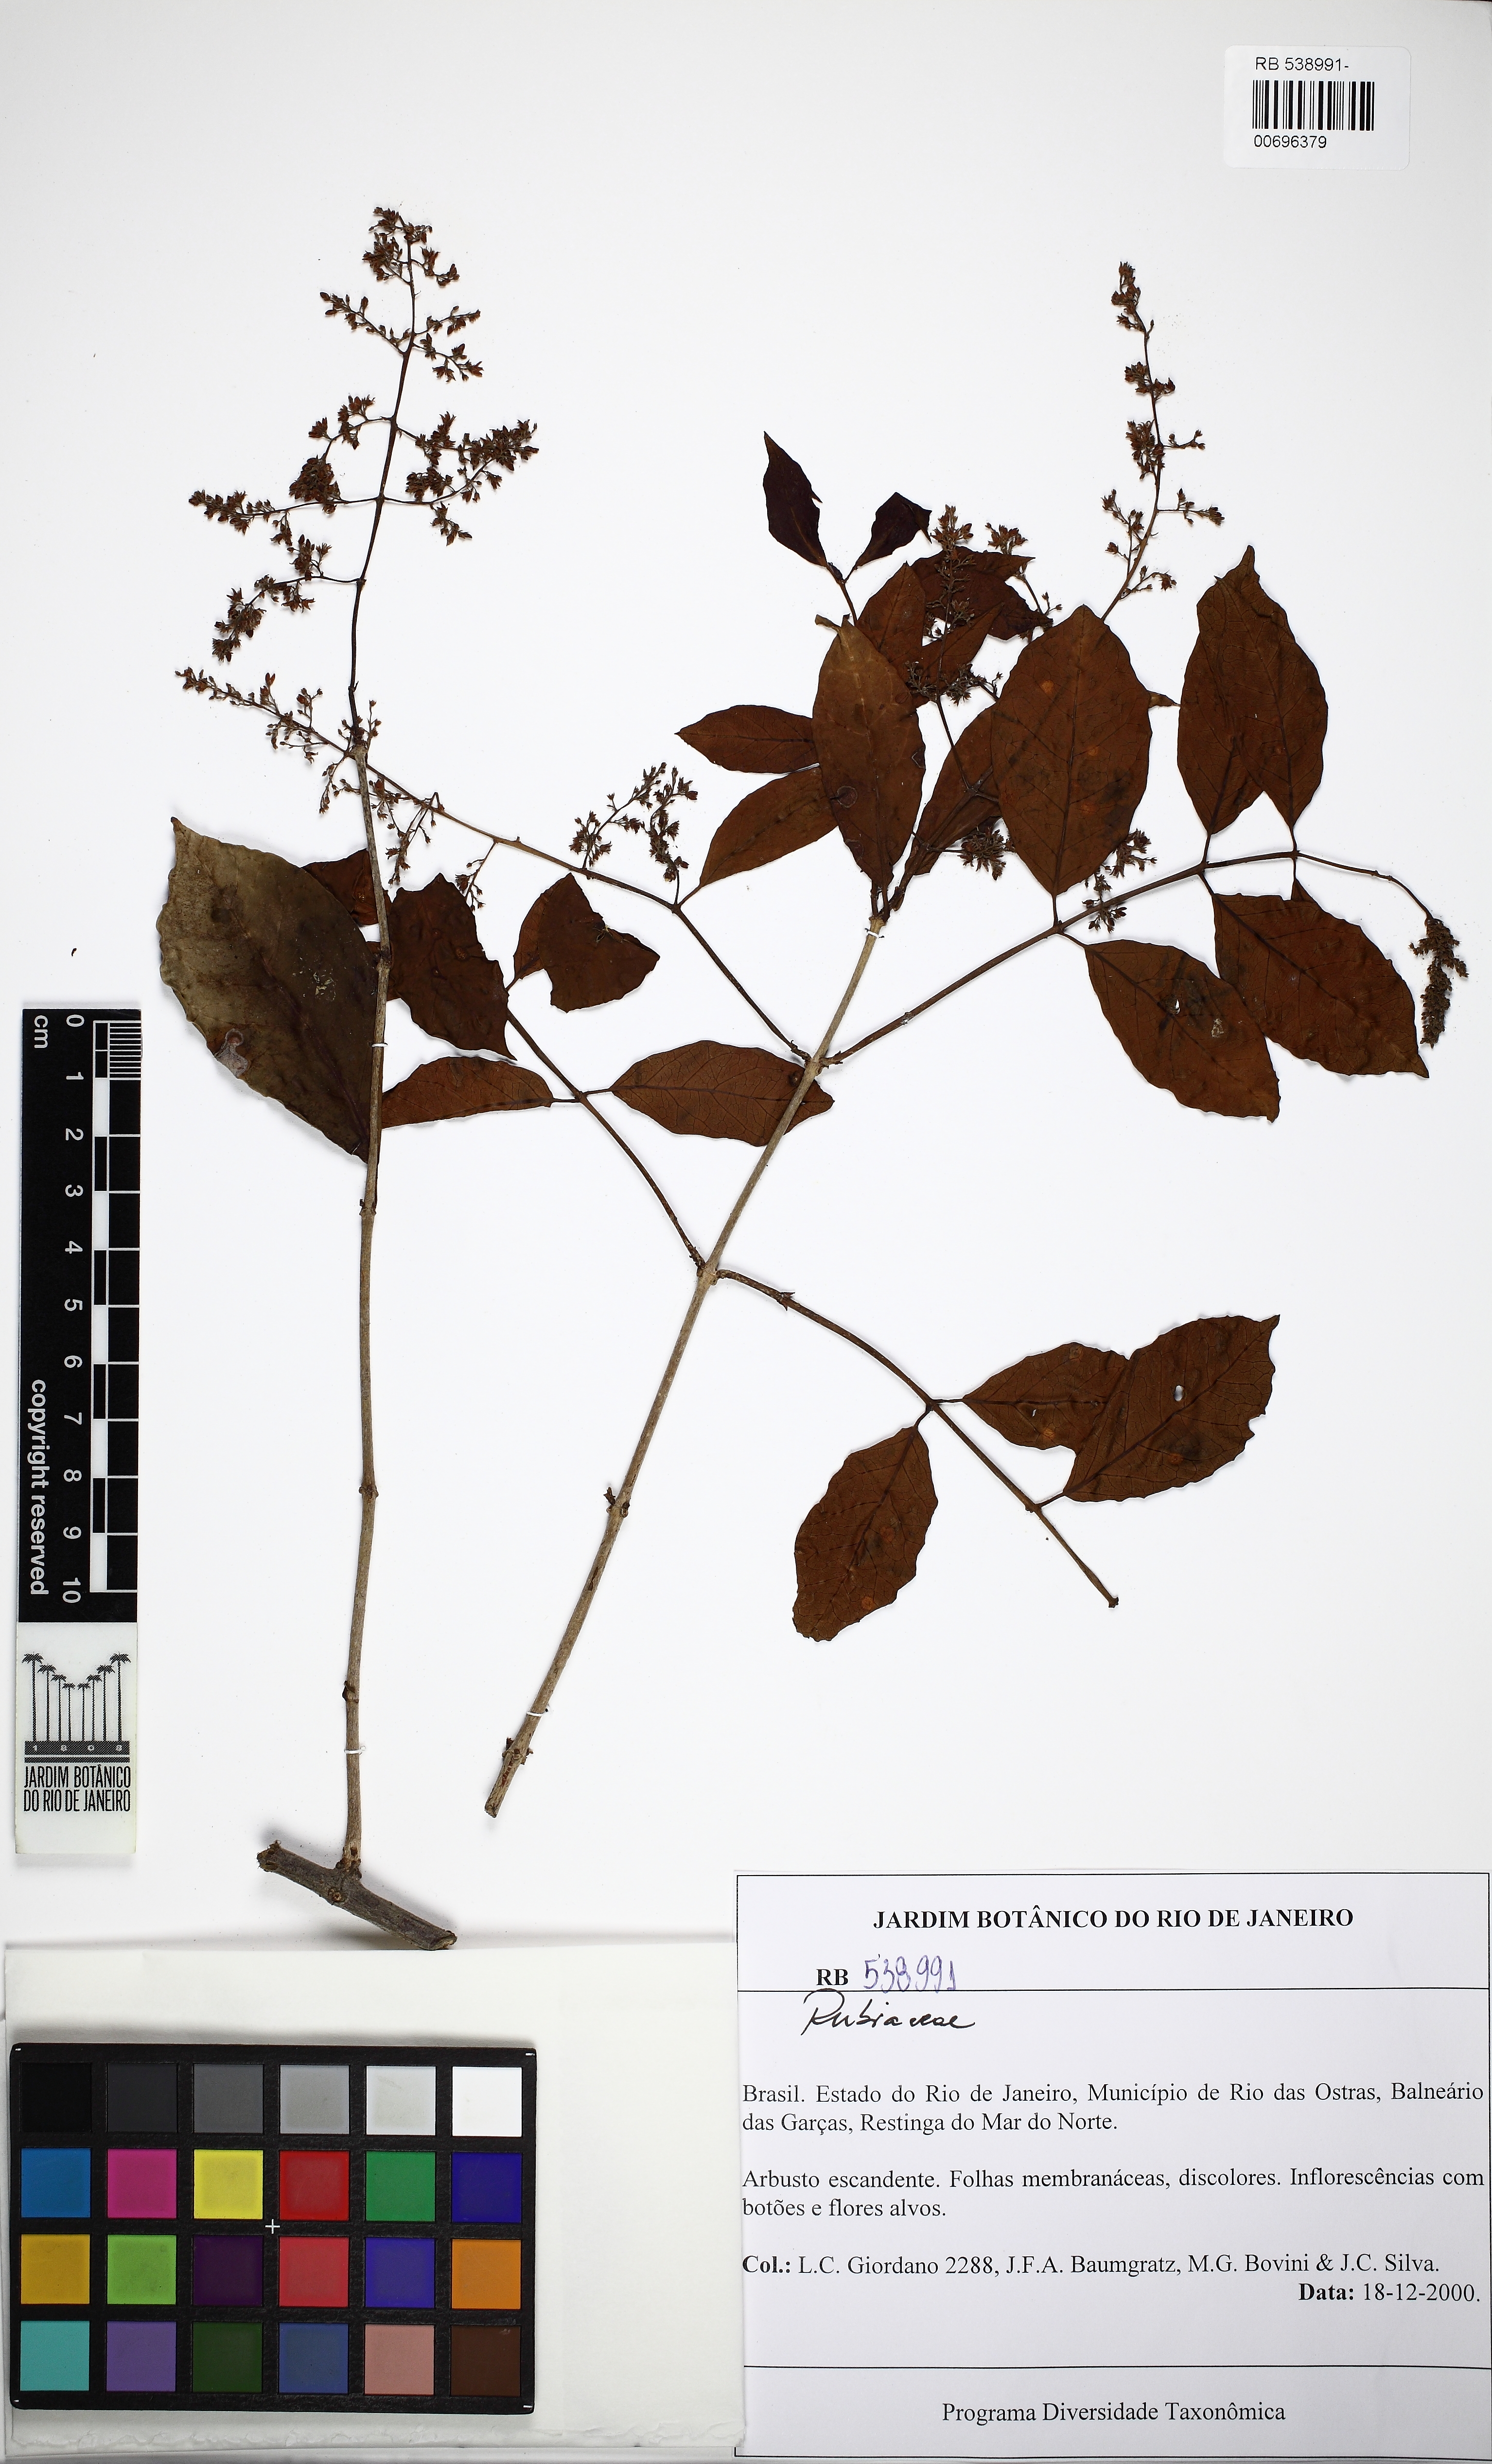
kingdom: Plantae
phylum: Tracheophyta
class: Magnoliopsida
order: Gentianales
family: Apocynaceae
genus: Forsteronia
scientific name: Forsteronia
